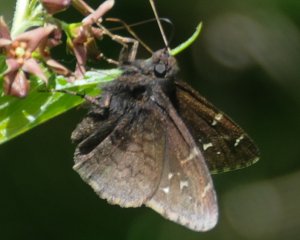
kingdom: Animalia
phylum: Arthropoda
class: Insecta
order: Lepidoptera
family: Hesperiidae
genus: Autochton
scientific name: Autochton
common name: Northern Cloudywing
